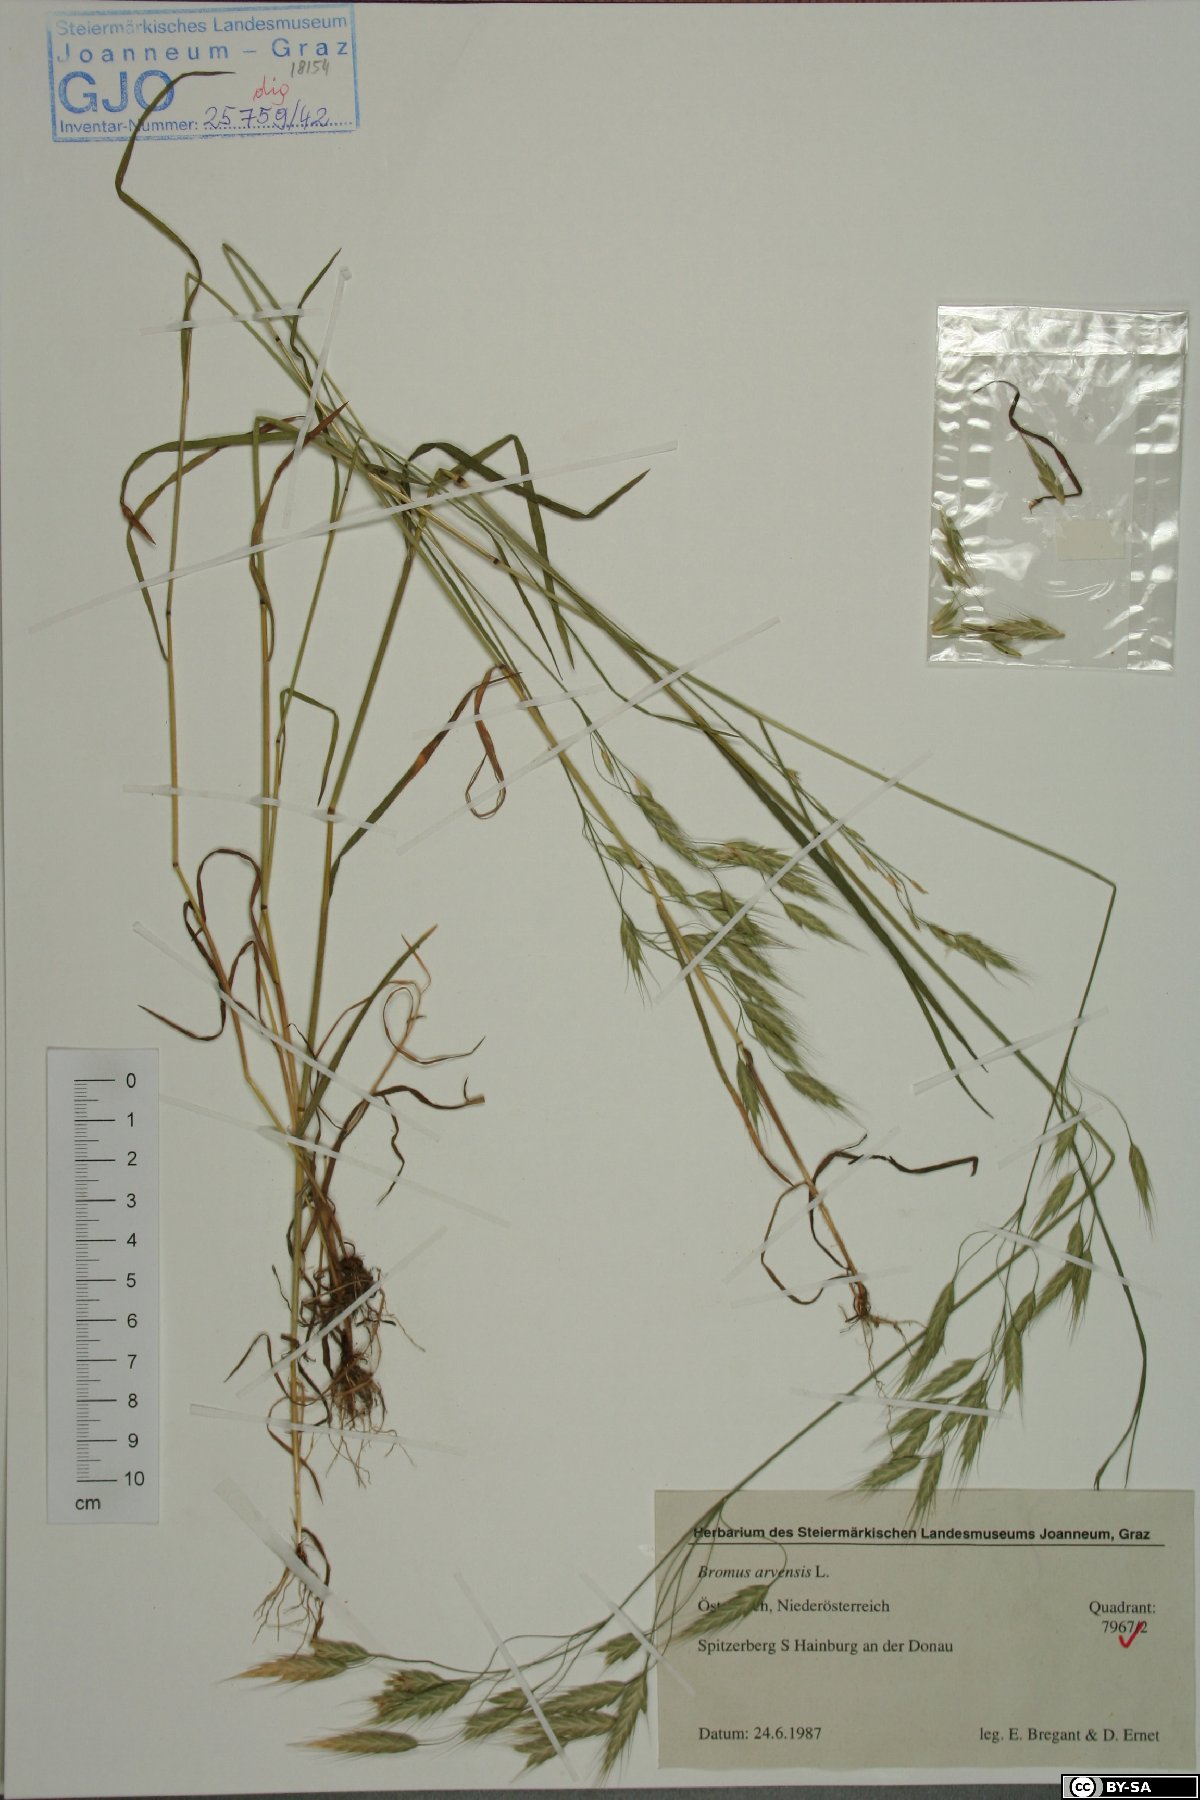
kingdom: Plantae
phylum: Tracheophyta
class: Liliopsida
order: Poales
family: Poaceae
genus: Bromus
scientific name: Bromus arvensis
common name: Field brome
